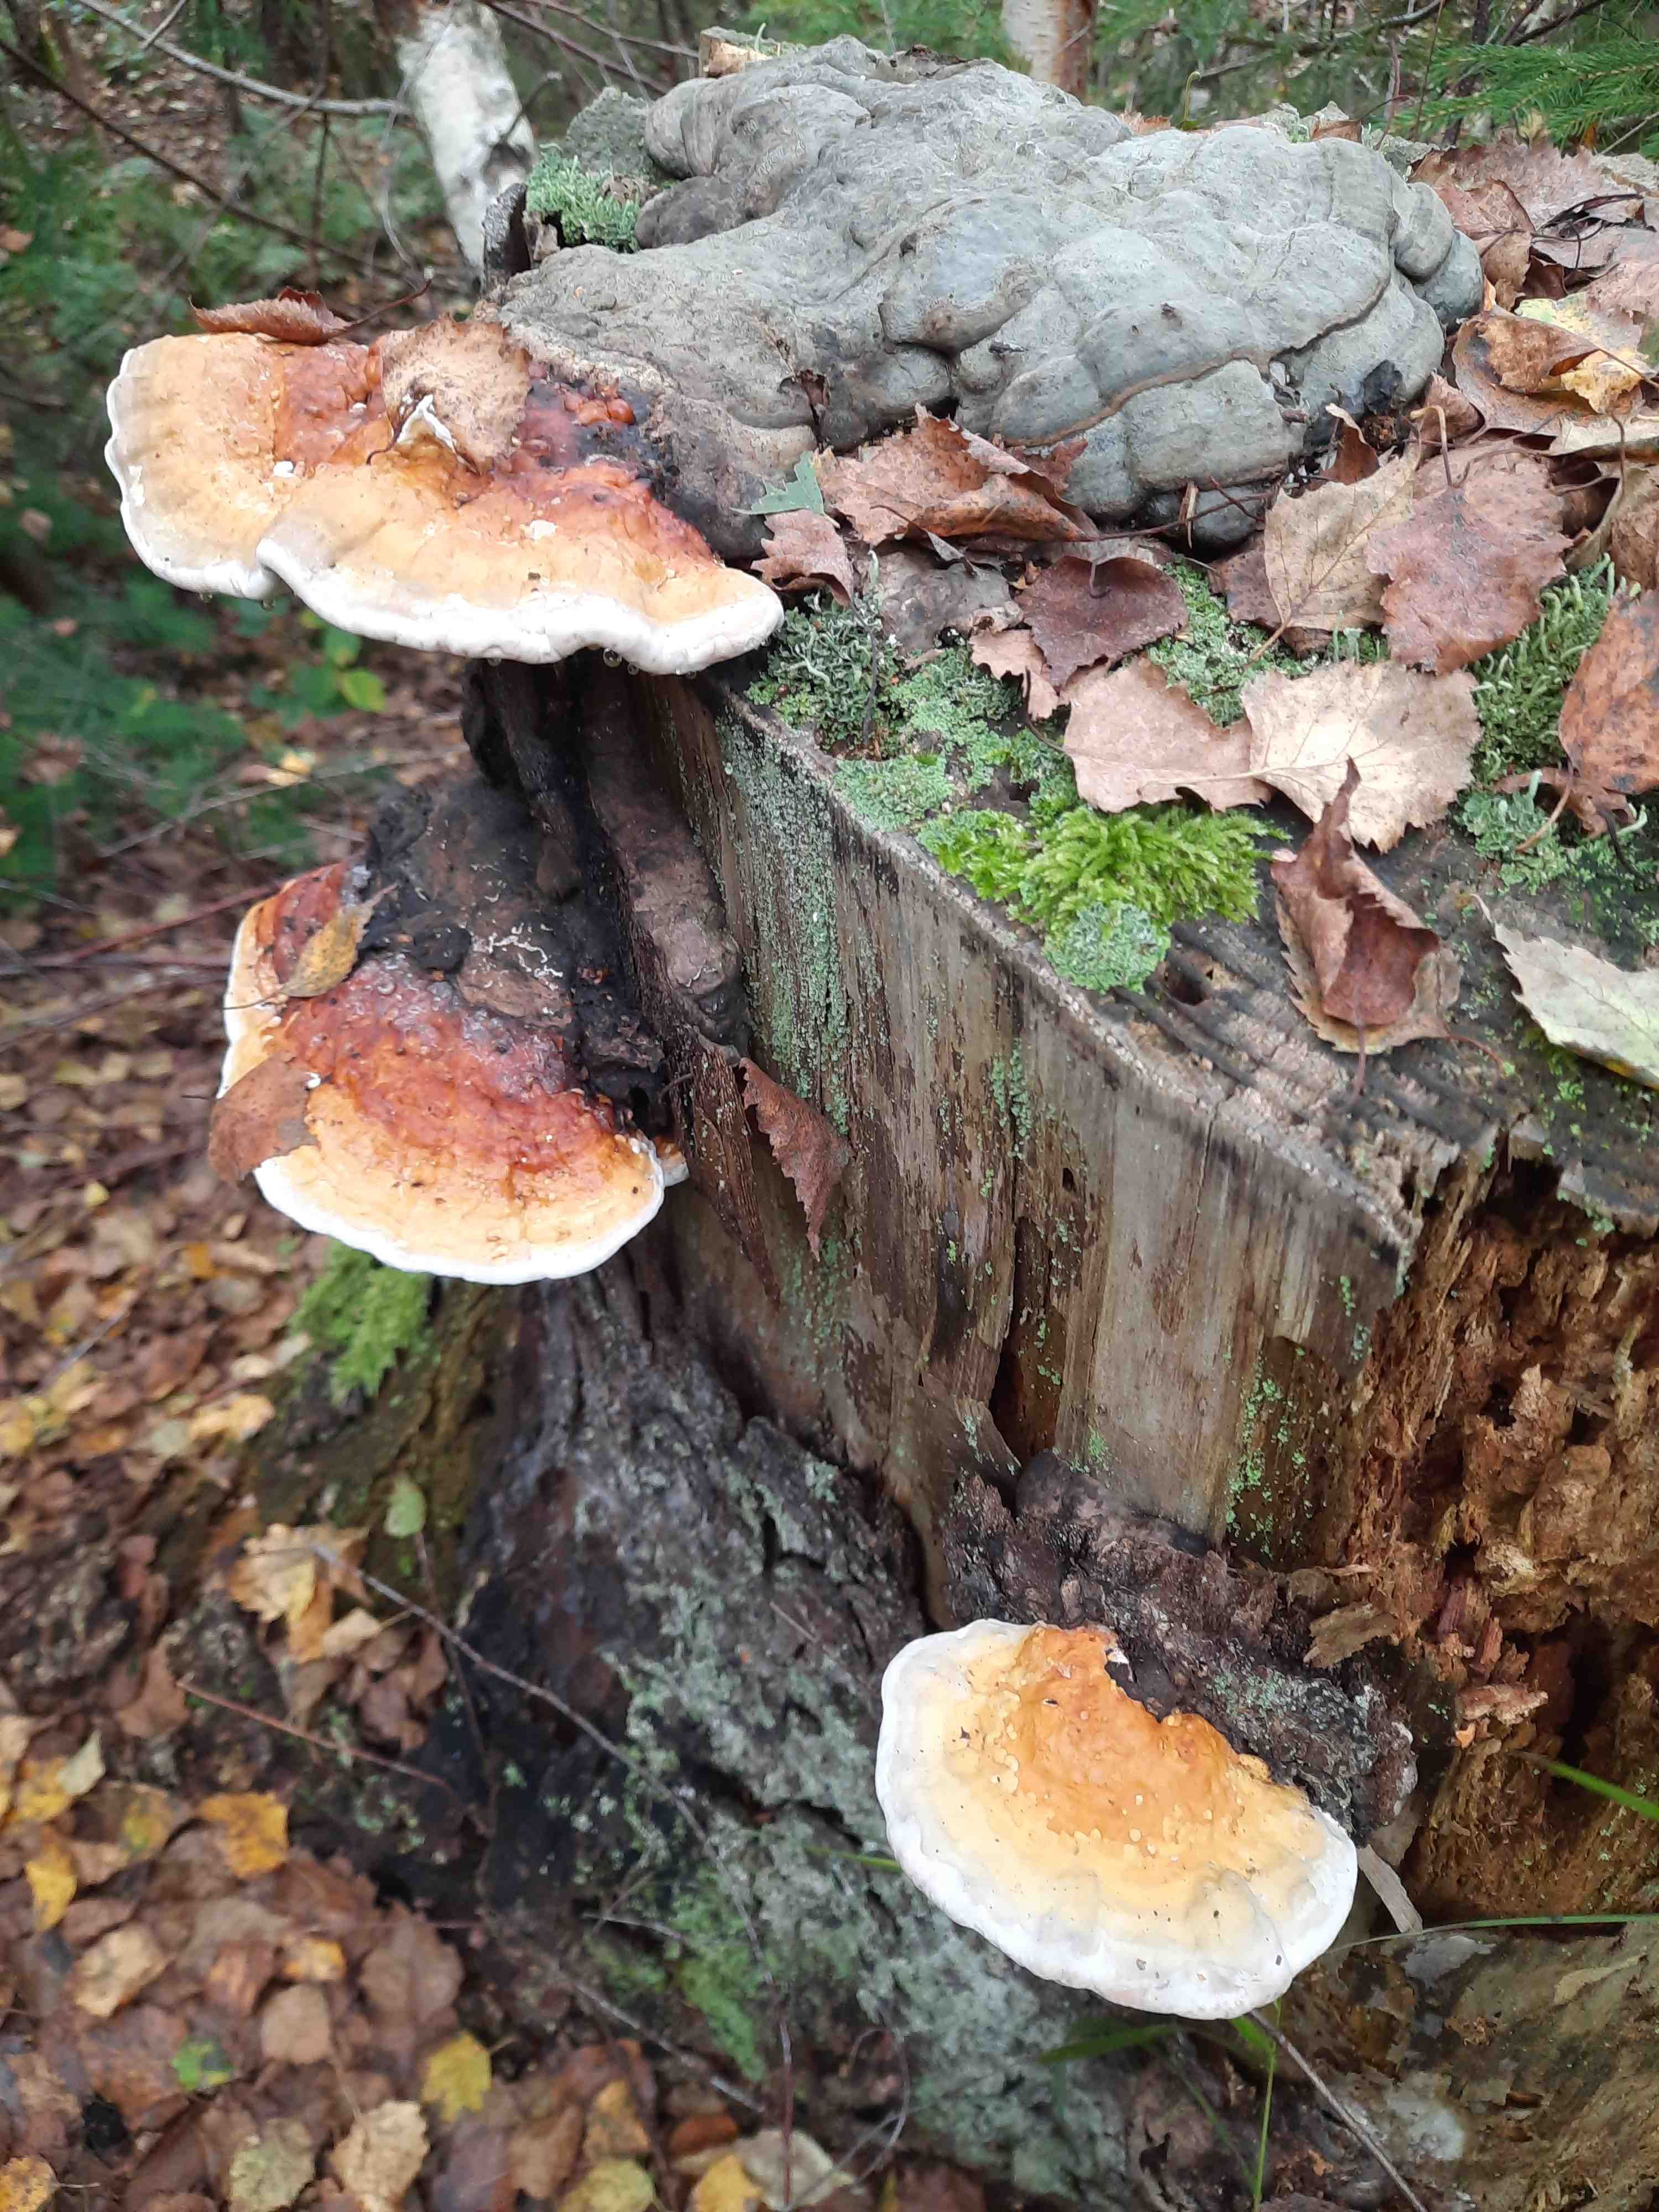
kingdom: Fungi
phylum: Basidiomycota
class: Agaricomycetes
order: Polyporales
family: Fomitopsidaceae
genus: Fomitopsis
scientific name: Fomitopsis pinicola
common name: randbæltet hovporesvamp
